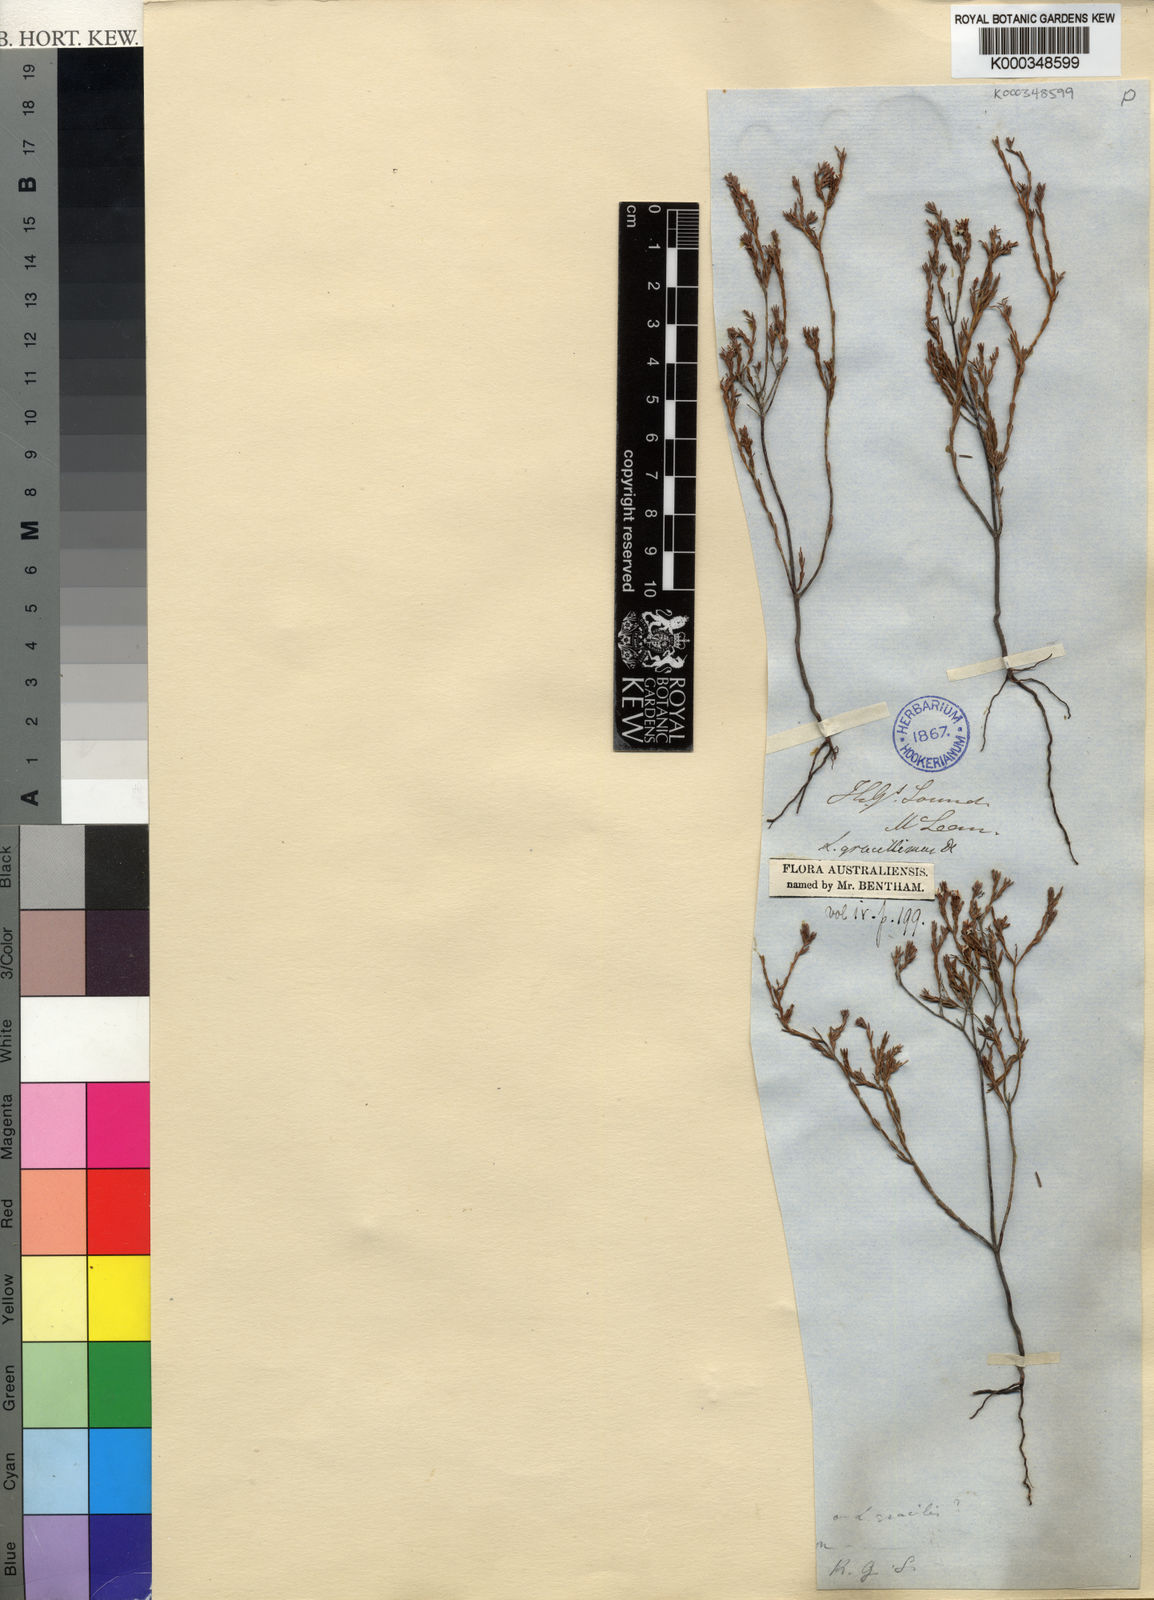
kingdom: Plantae
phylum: Tracheophyta
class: Magnoliopsida
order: Ericales
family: Ericaceae
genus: Leucopogon
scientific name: Leucopogon gracillimus
